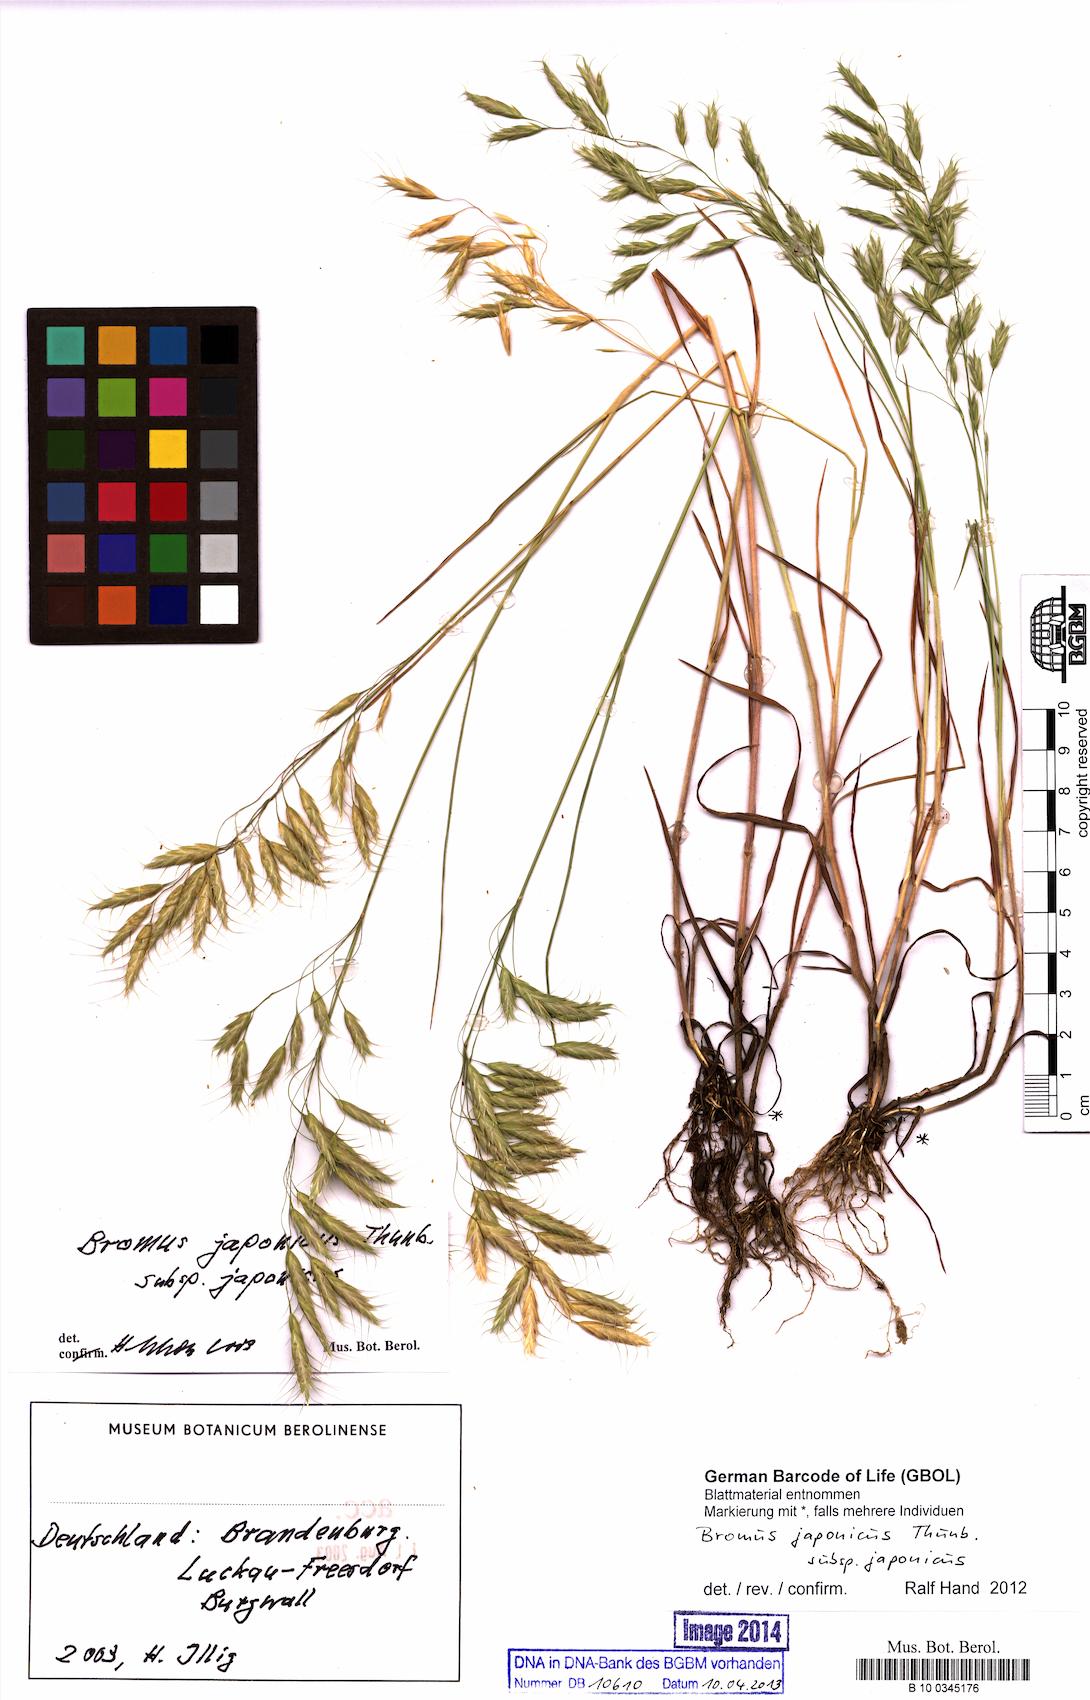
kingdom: Plantae
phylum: Tracheophyta
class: Liliopsida
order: Poales
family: Poaceae
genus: Bromus
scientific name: Bromus japonicus
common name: Japanese brome
